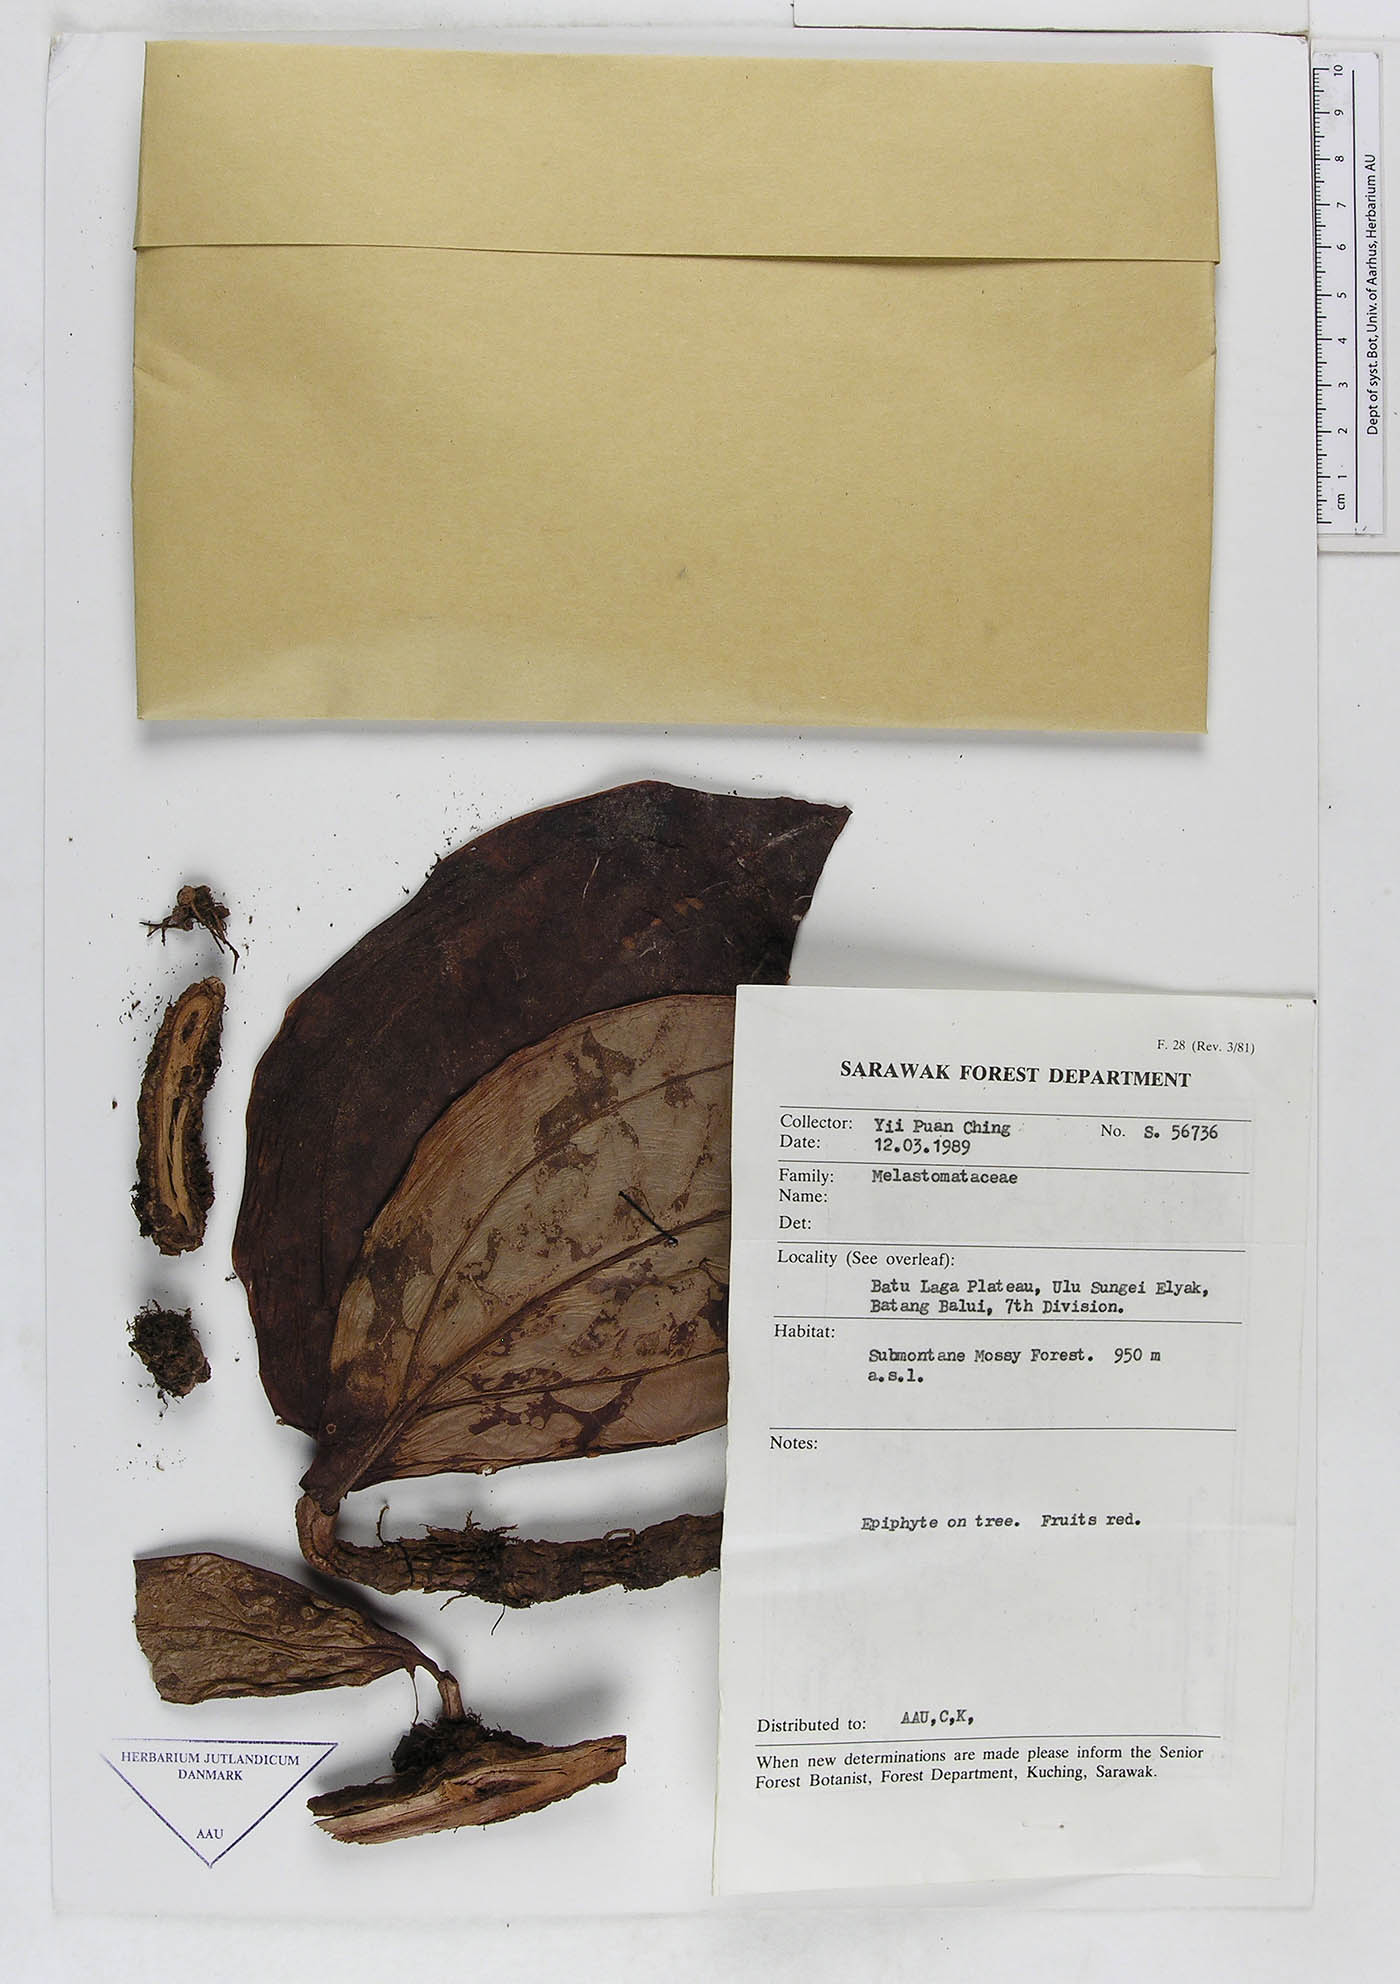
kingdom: Plantae
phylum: Tracheophyta
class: Magnoliopsida
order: Myrtales
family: Melastomataceae
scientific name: Melastomataceae
